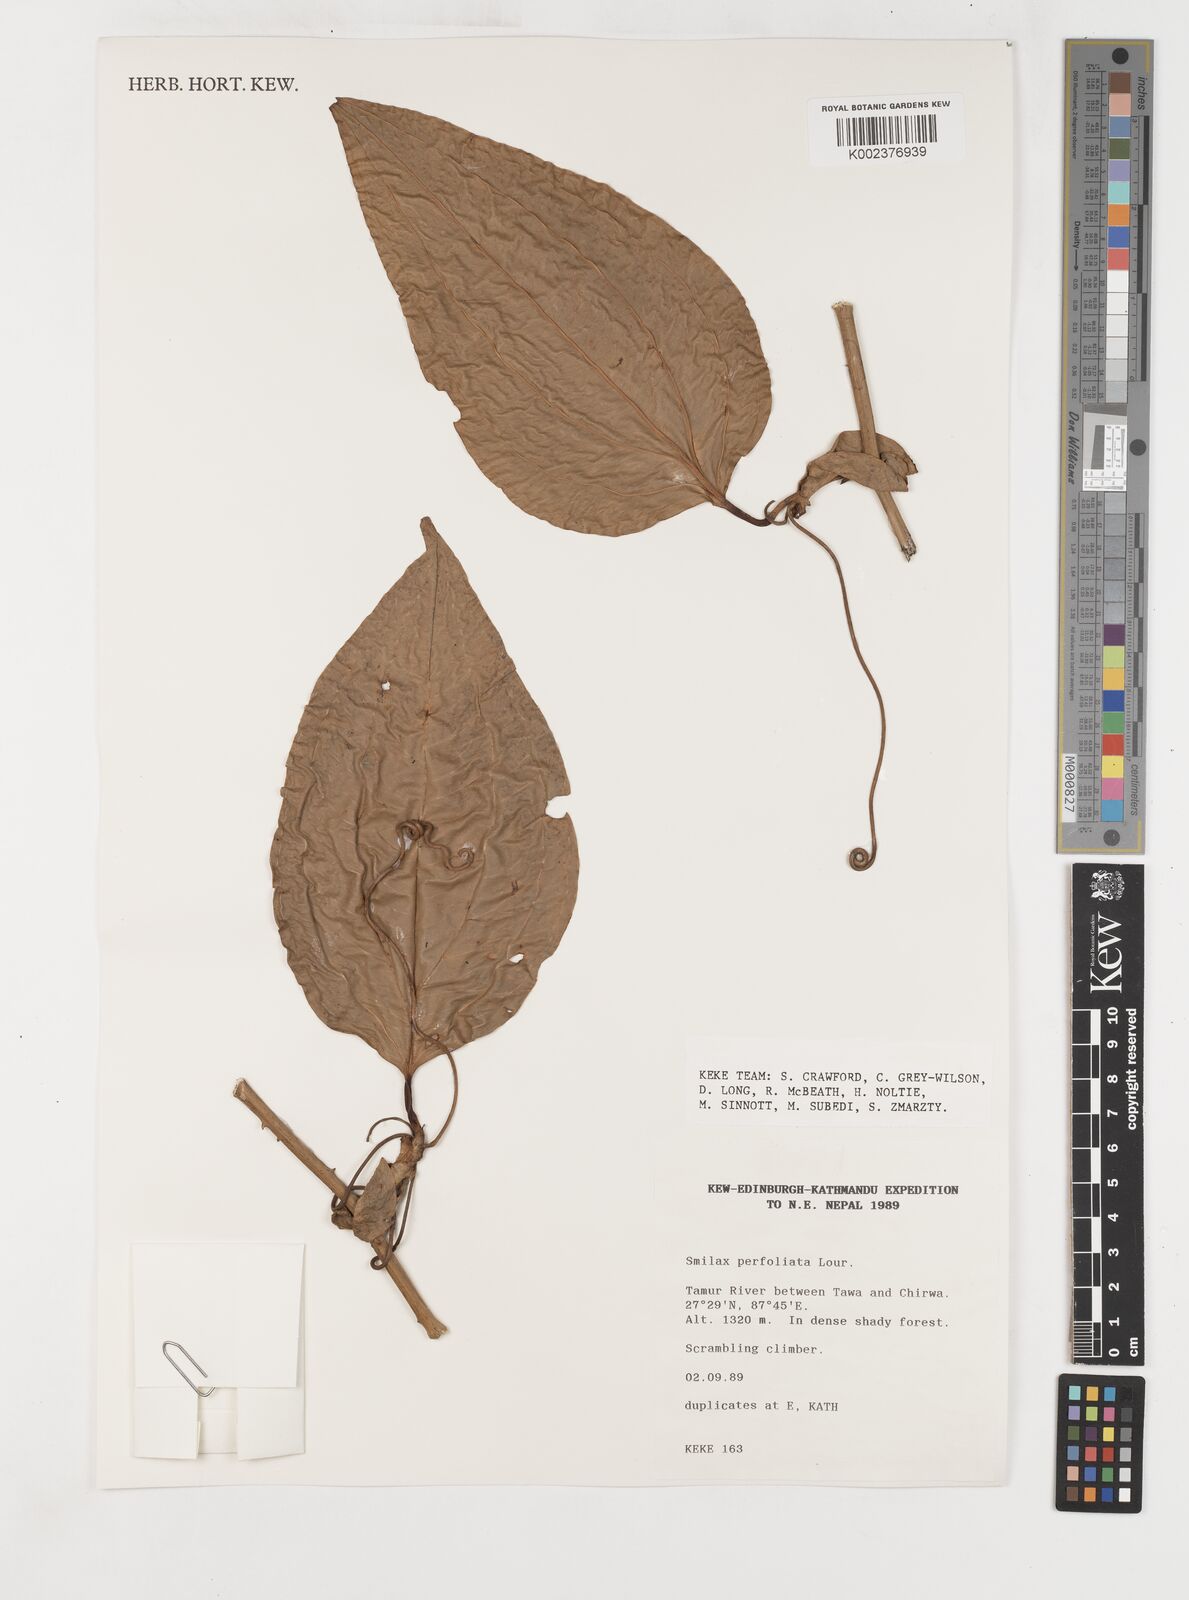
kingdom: Plantae
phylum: Tracheophyta
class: Liliopsida
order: Liliales
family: Smilacaceae
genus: Smilax
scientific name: Smilax perfoliata
